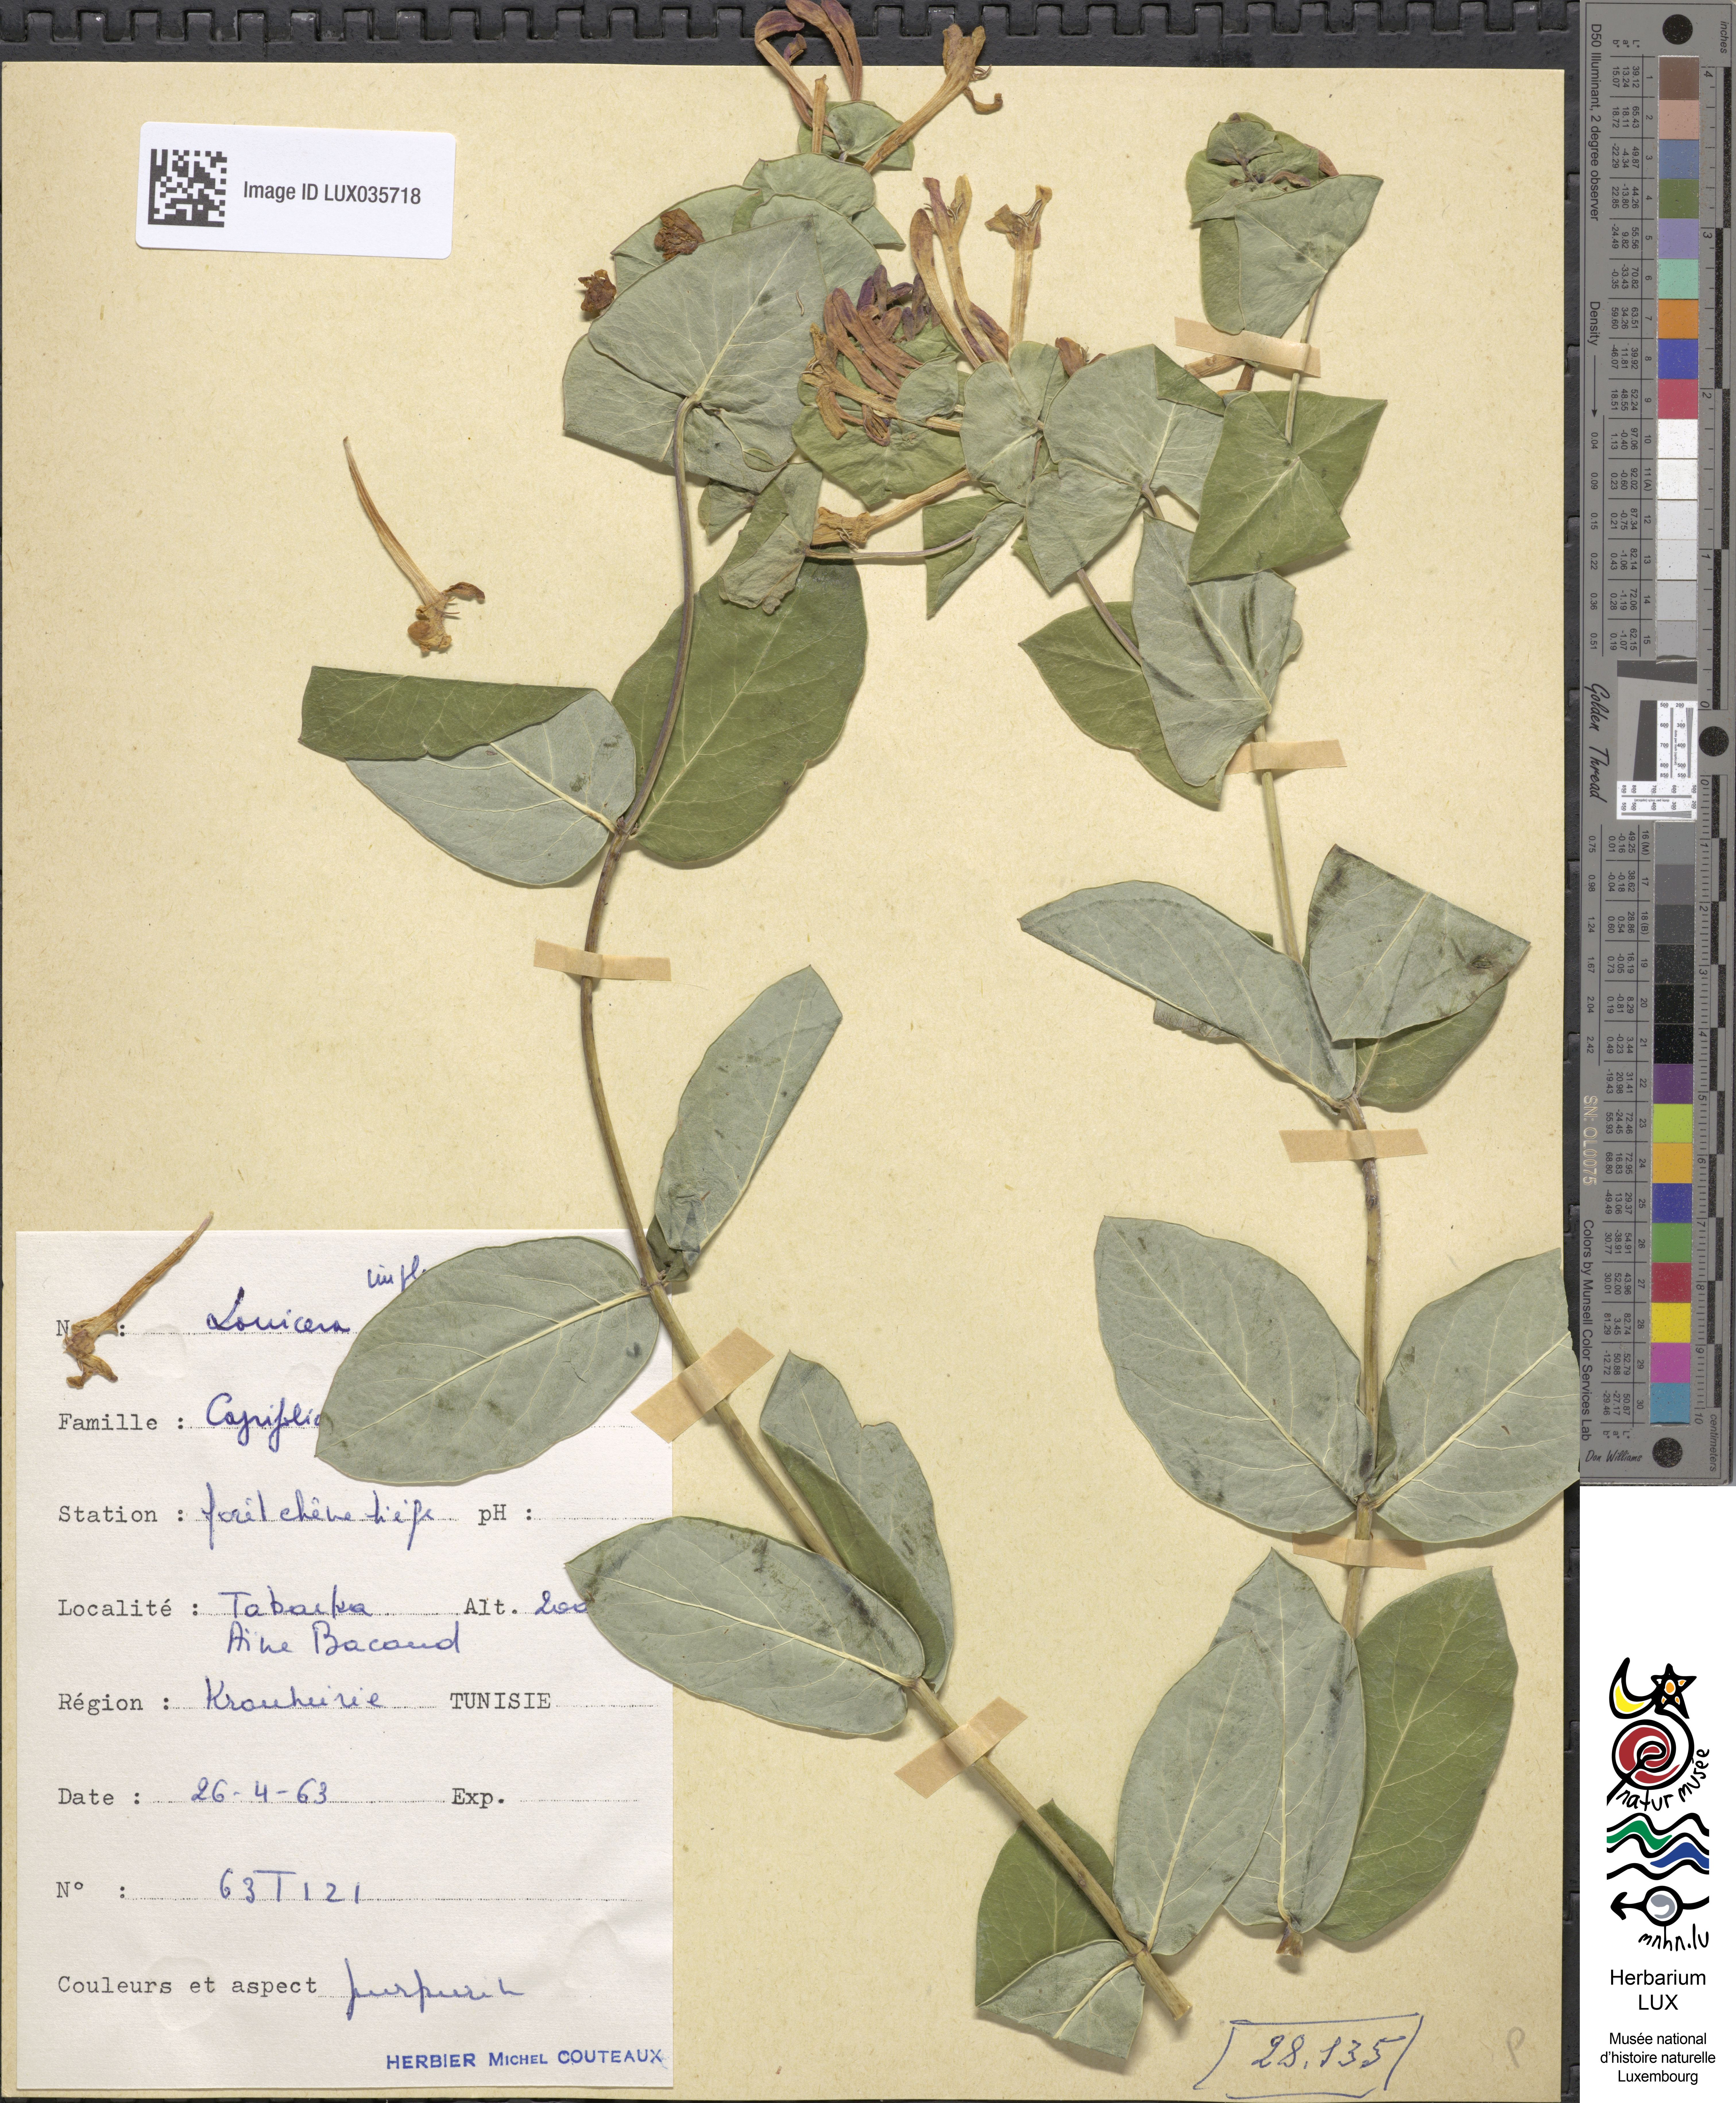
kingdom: Plantae
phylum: Tracheophyta
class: Magnoliopsida
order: Dipsacales
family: Caprifoliaceae
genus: Lonicera
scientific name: Lonicera implexa
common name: Minorca honeysuckle
